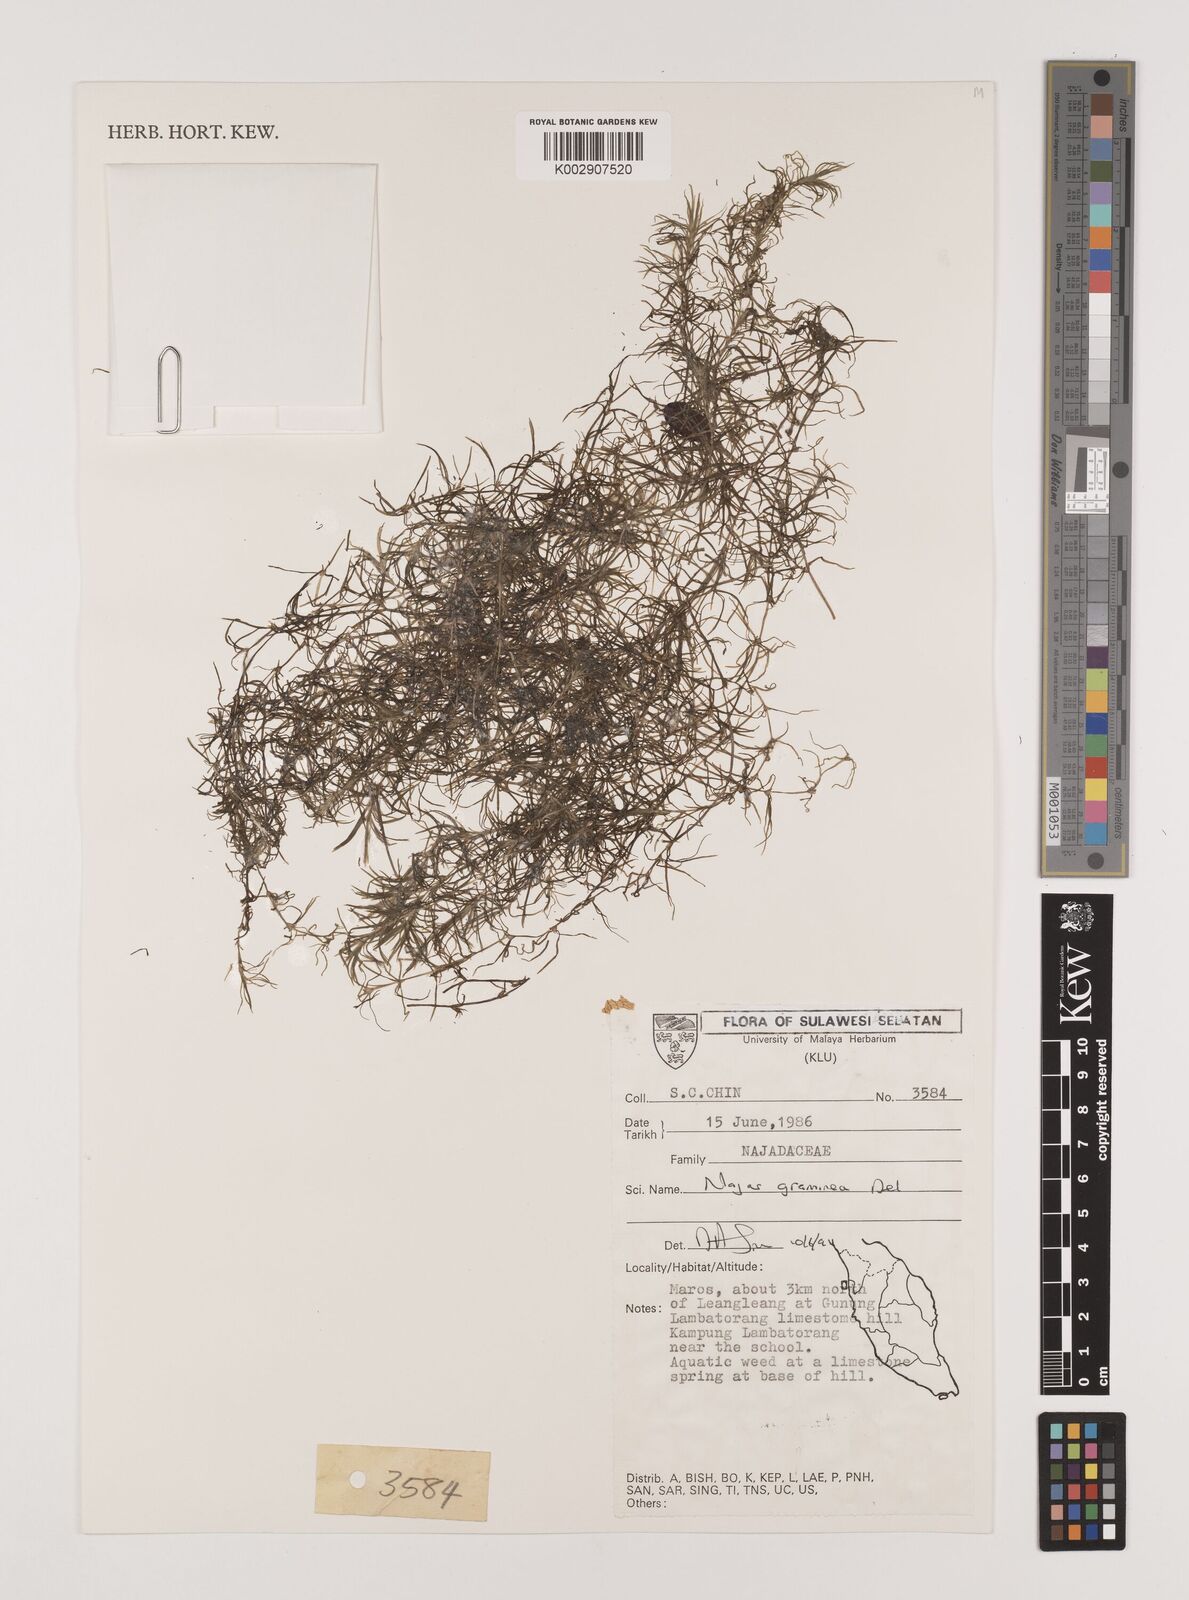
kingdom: Plantae
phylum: Tracheophyta
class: Liliopsida
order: Alismatales
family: Hydrocharitaceae
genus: Najas
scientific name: Najas graminea
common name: Ricefield waternymph
